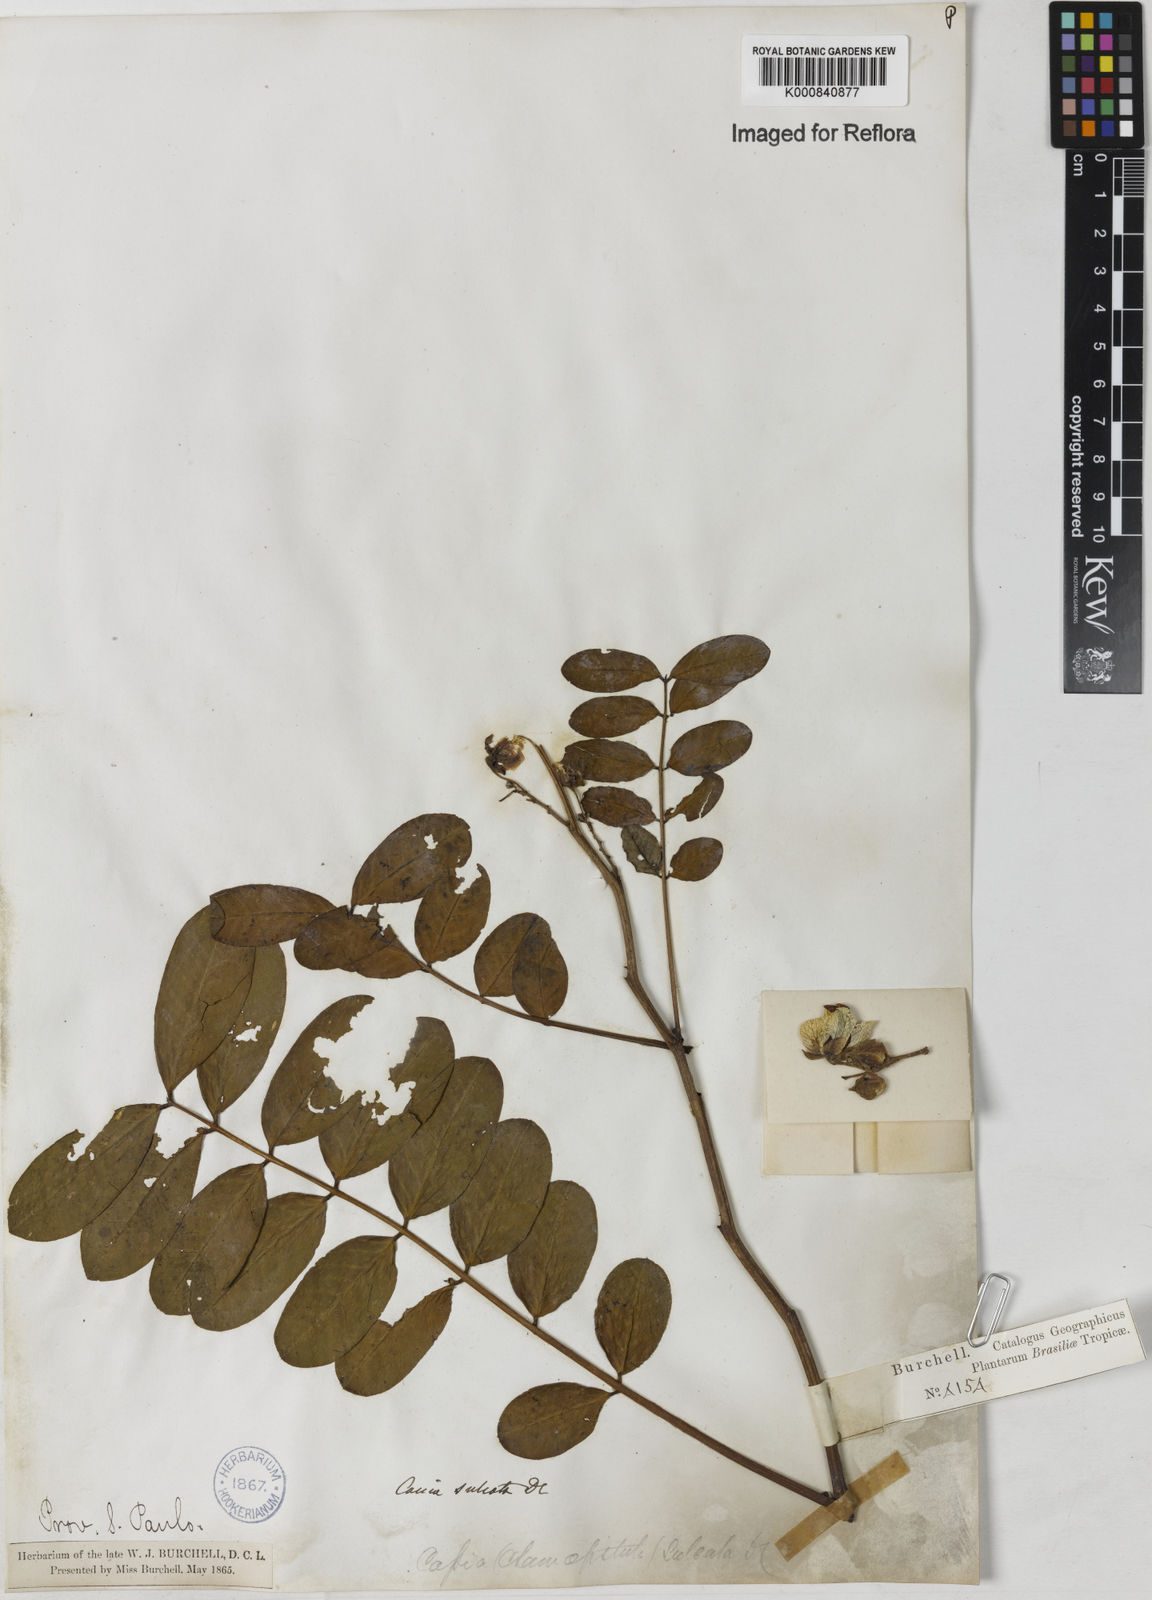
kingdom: Plantae
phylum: Tracheophyta
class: Magnoliopsida
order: Fabales
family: Fabaceae
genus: Senna
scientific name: Senna cernua
